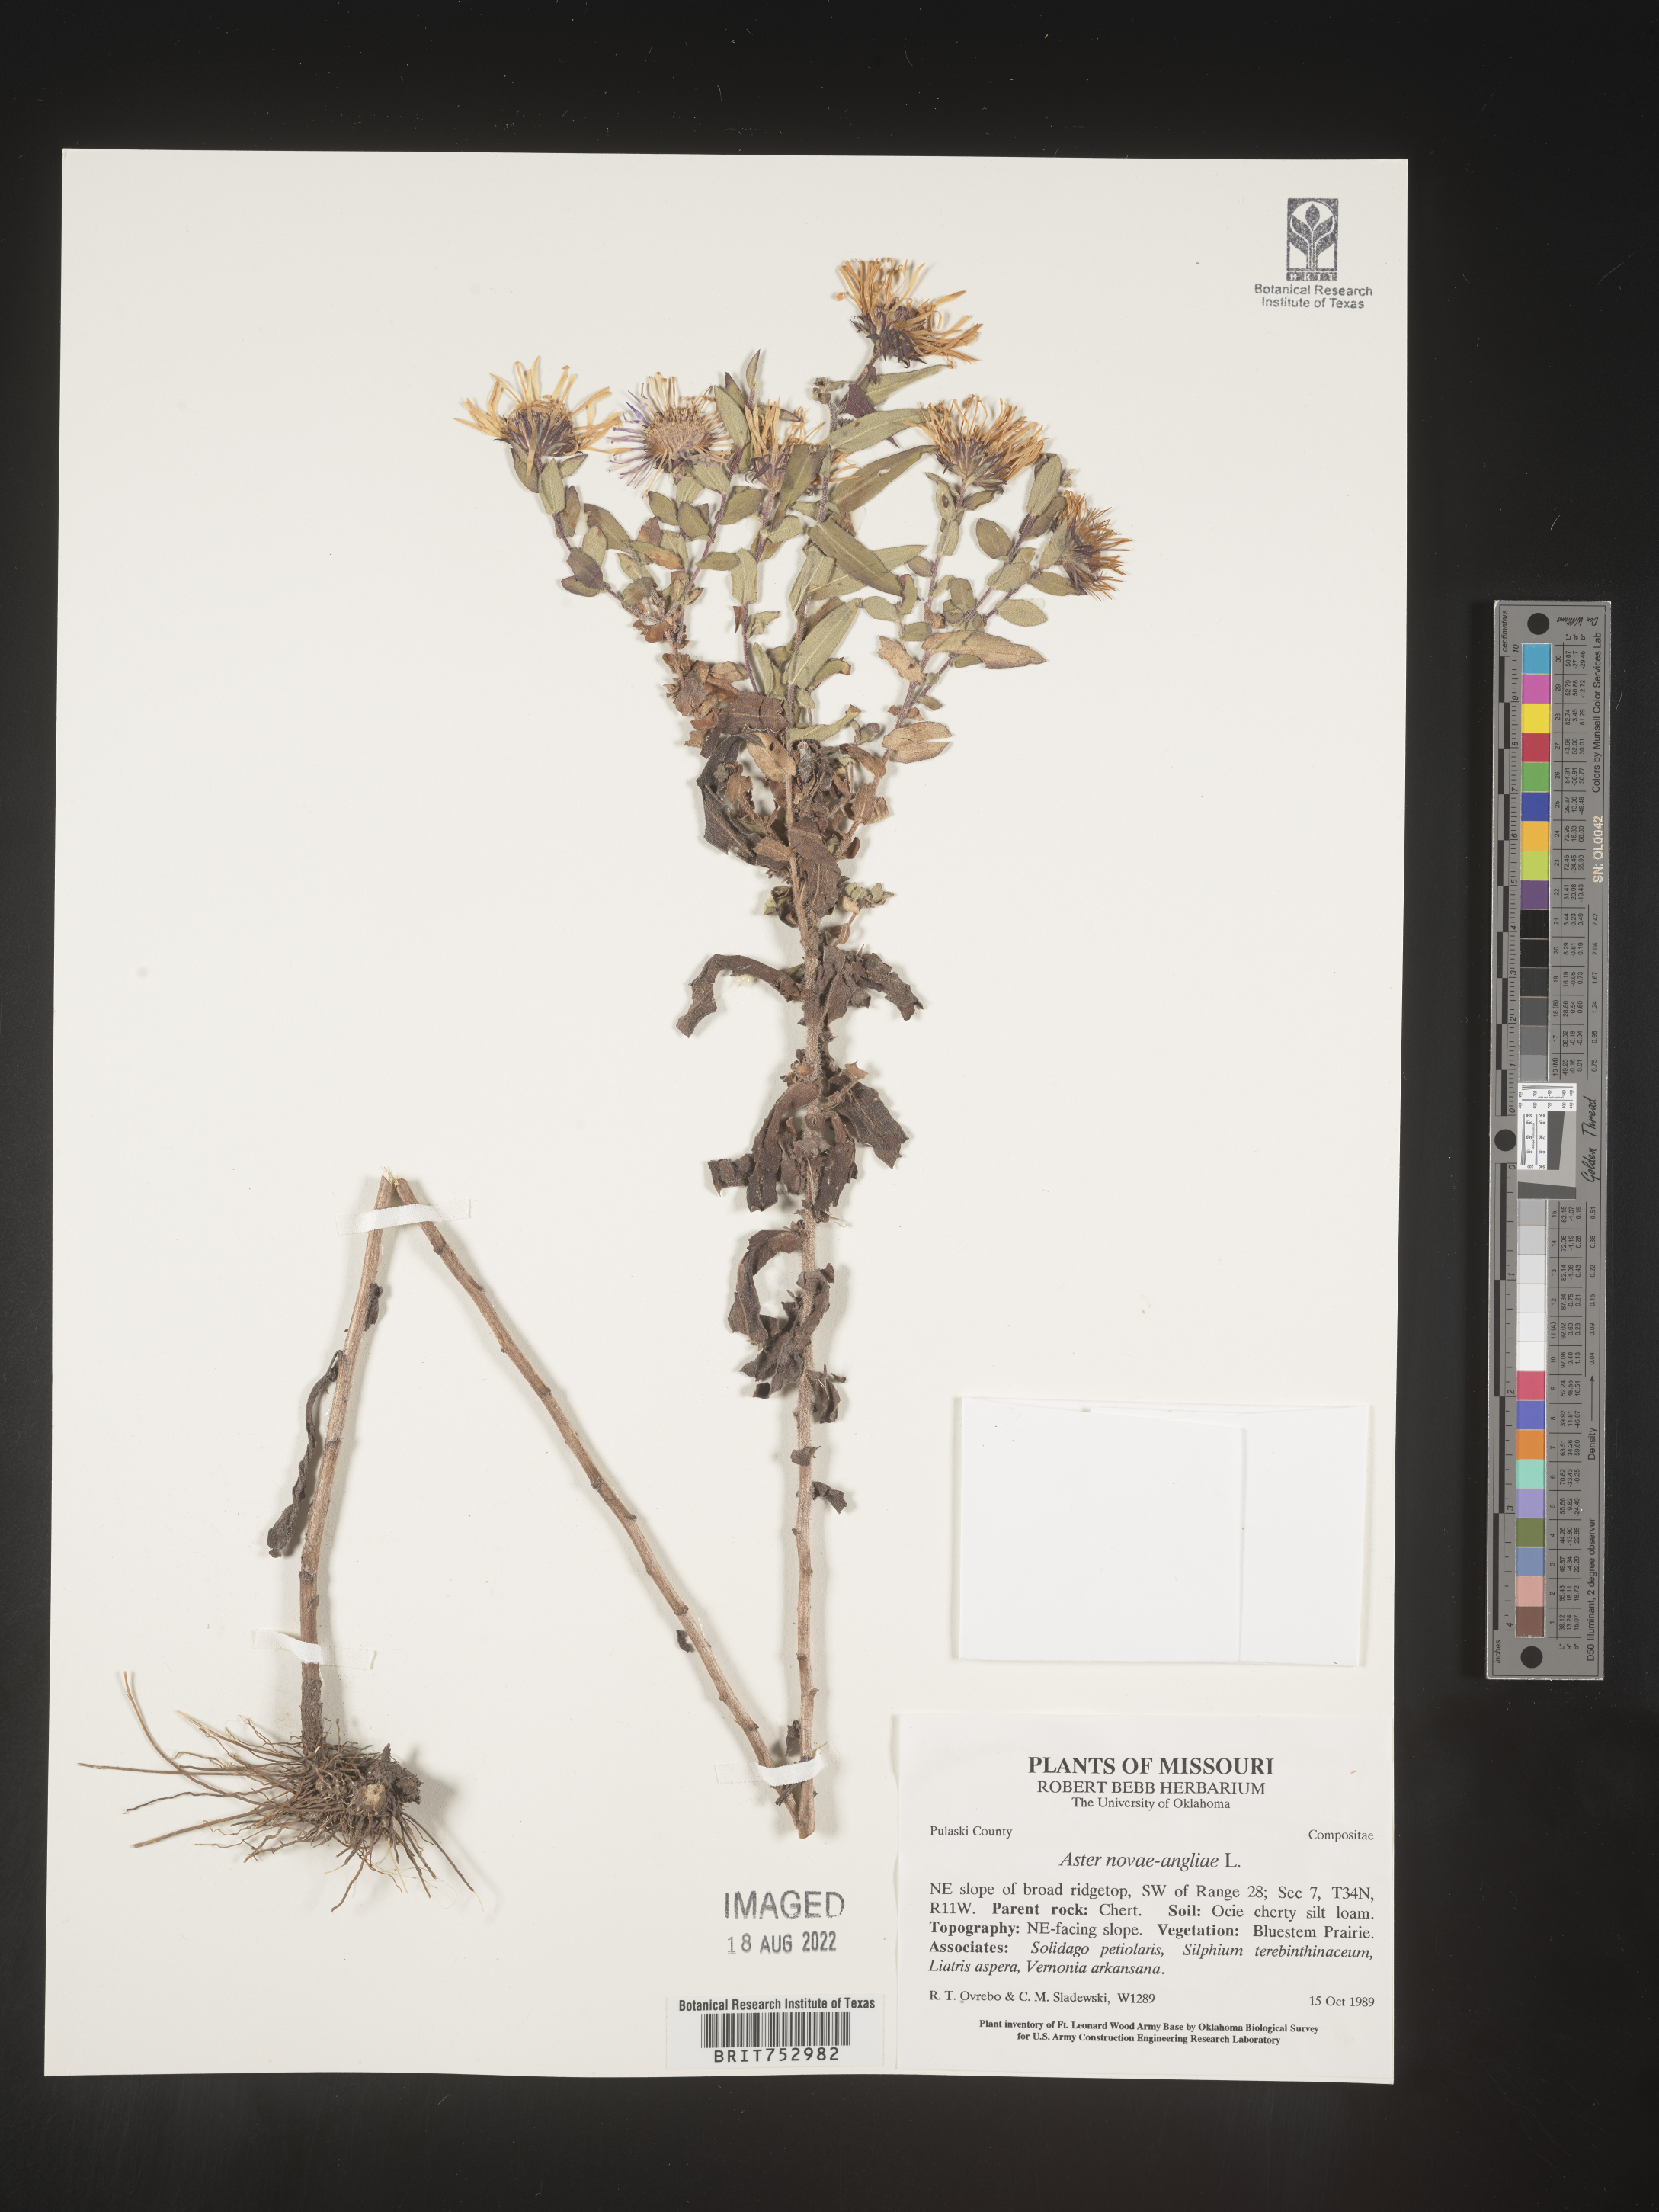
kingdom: Plantae
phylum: Tracheophyta
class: Magnoliopsida
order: Asterales
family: Asteraceae
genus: Symphyotrichum
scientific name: Symphyotrichum novae-angliae
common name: Michaelmas daisy
